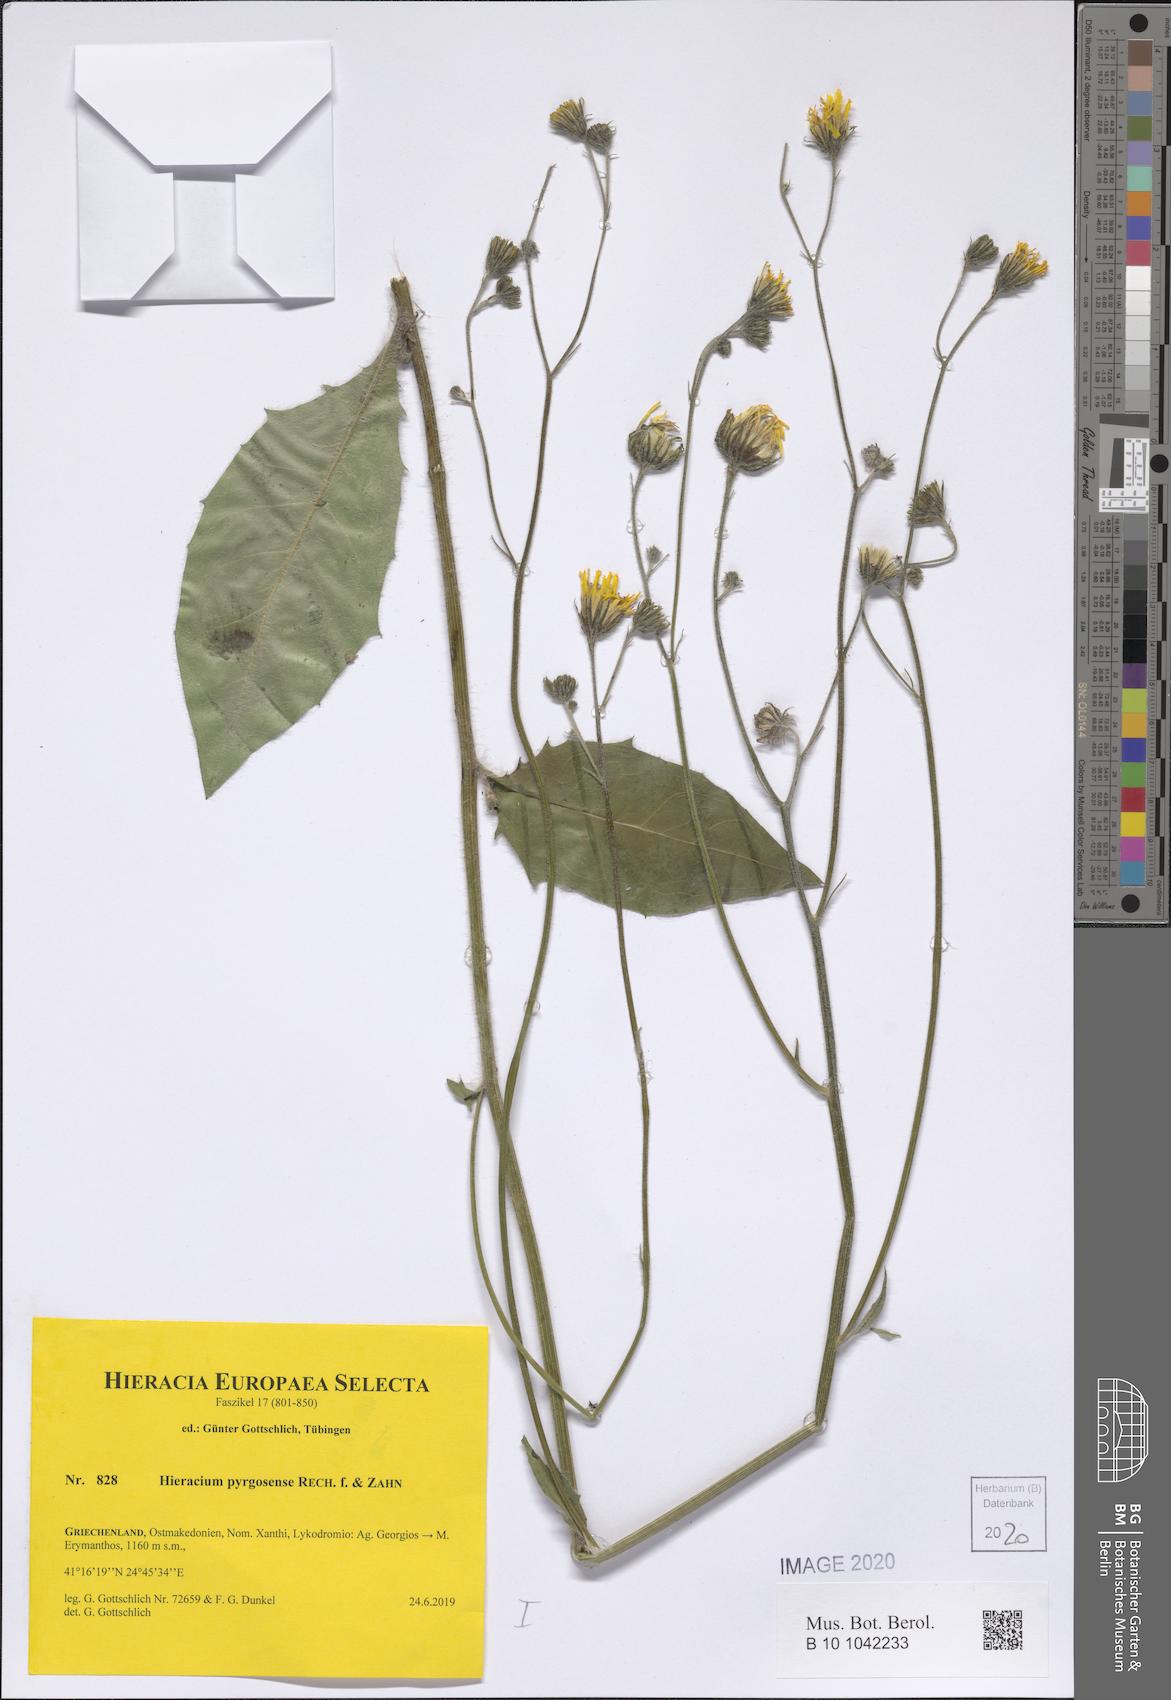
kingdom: Plantae
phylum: Tracheophyta
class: Magnoliopsida
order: Asterales
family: Asteraceae
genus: Hieracium
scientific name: Hieracium pyrgosense
